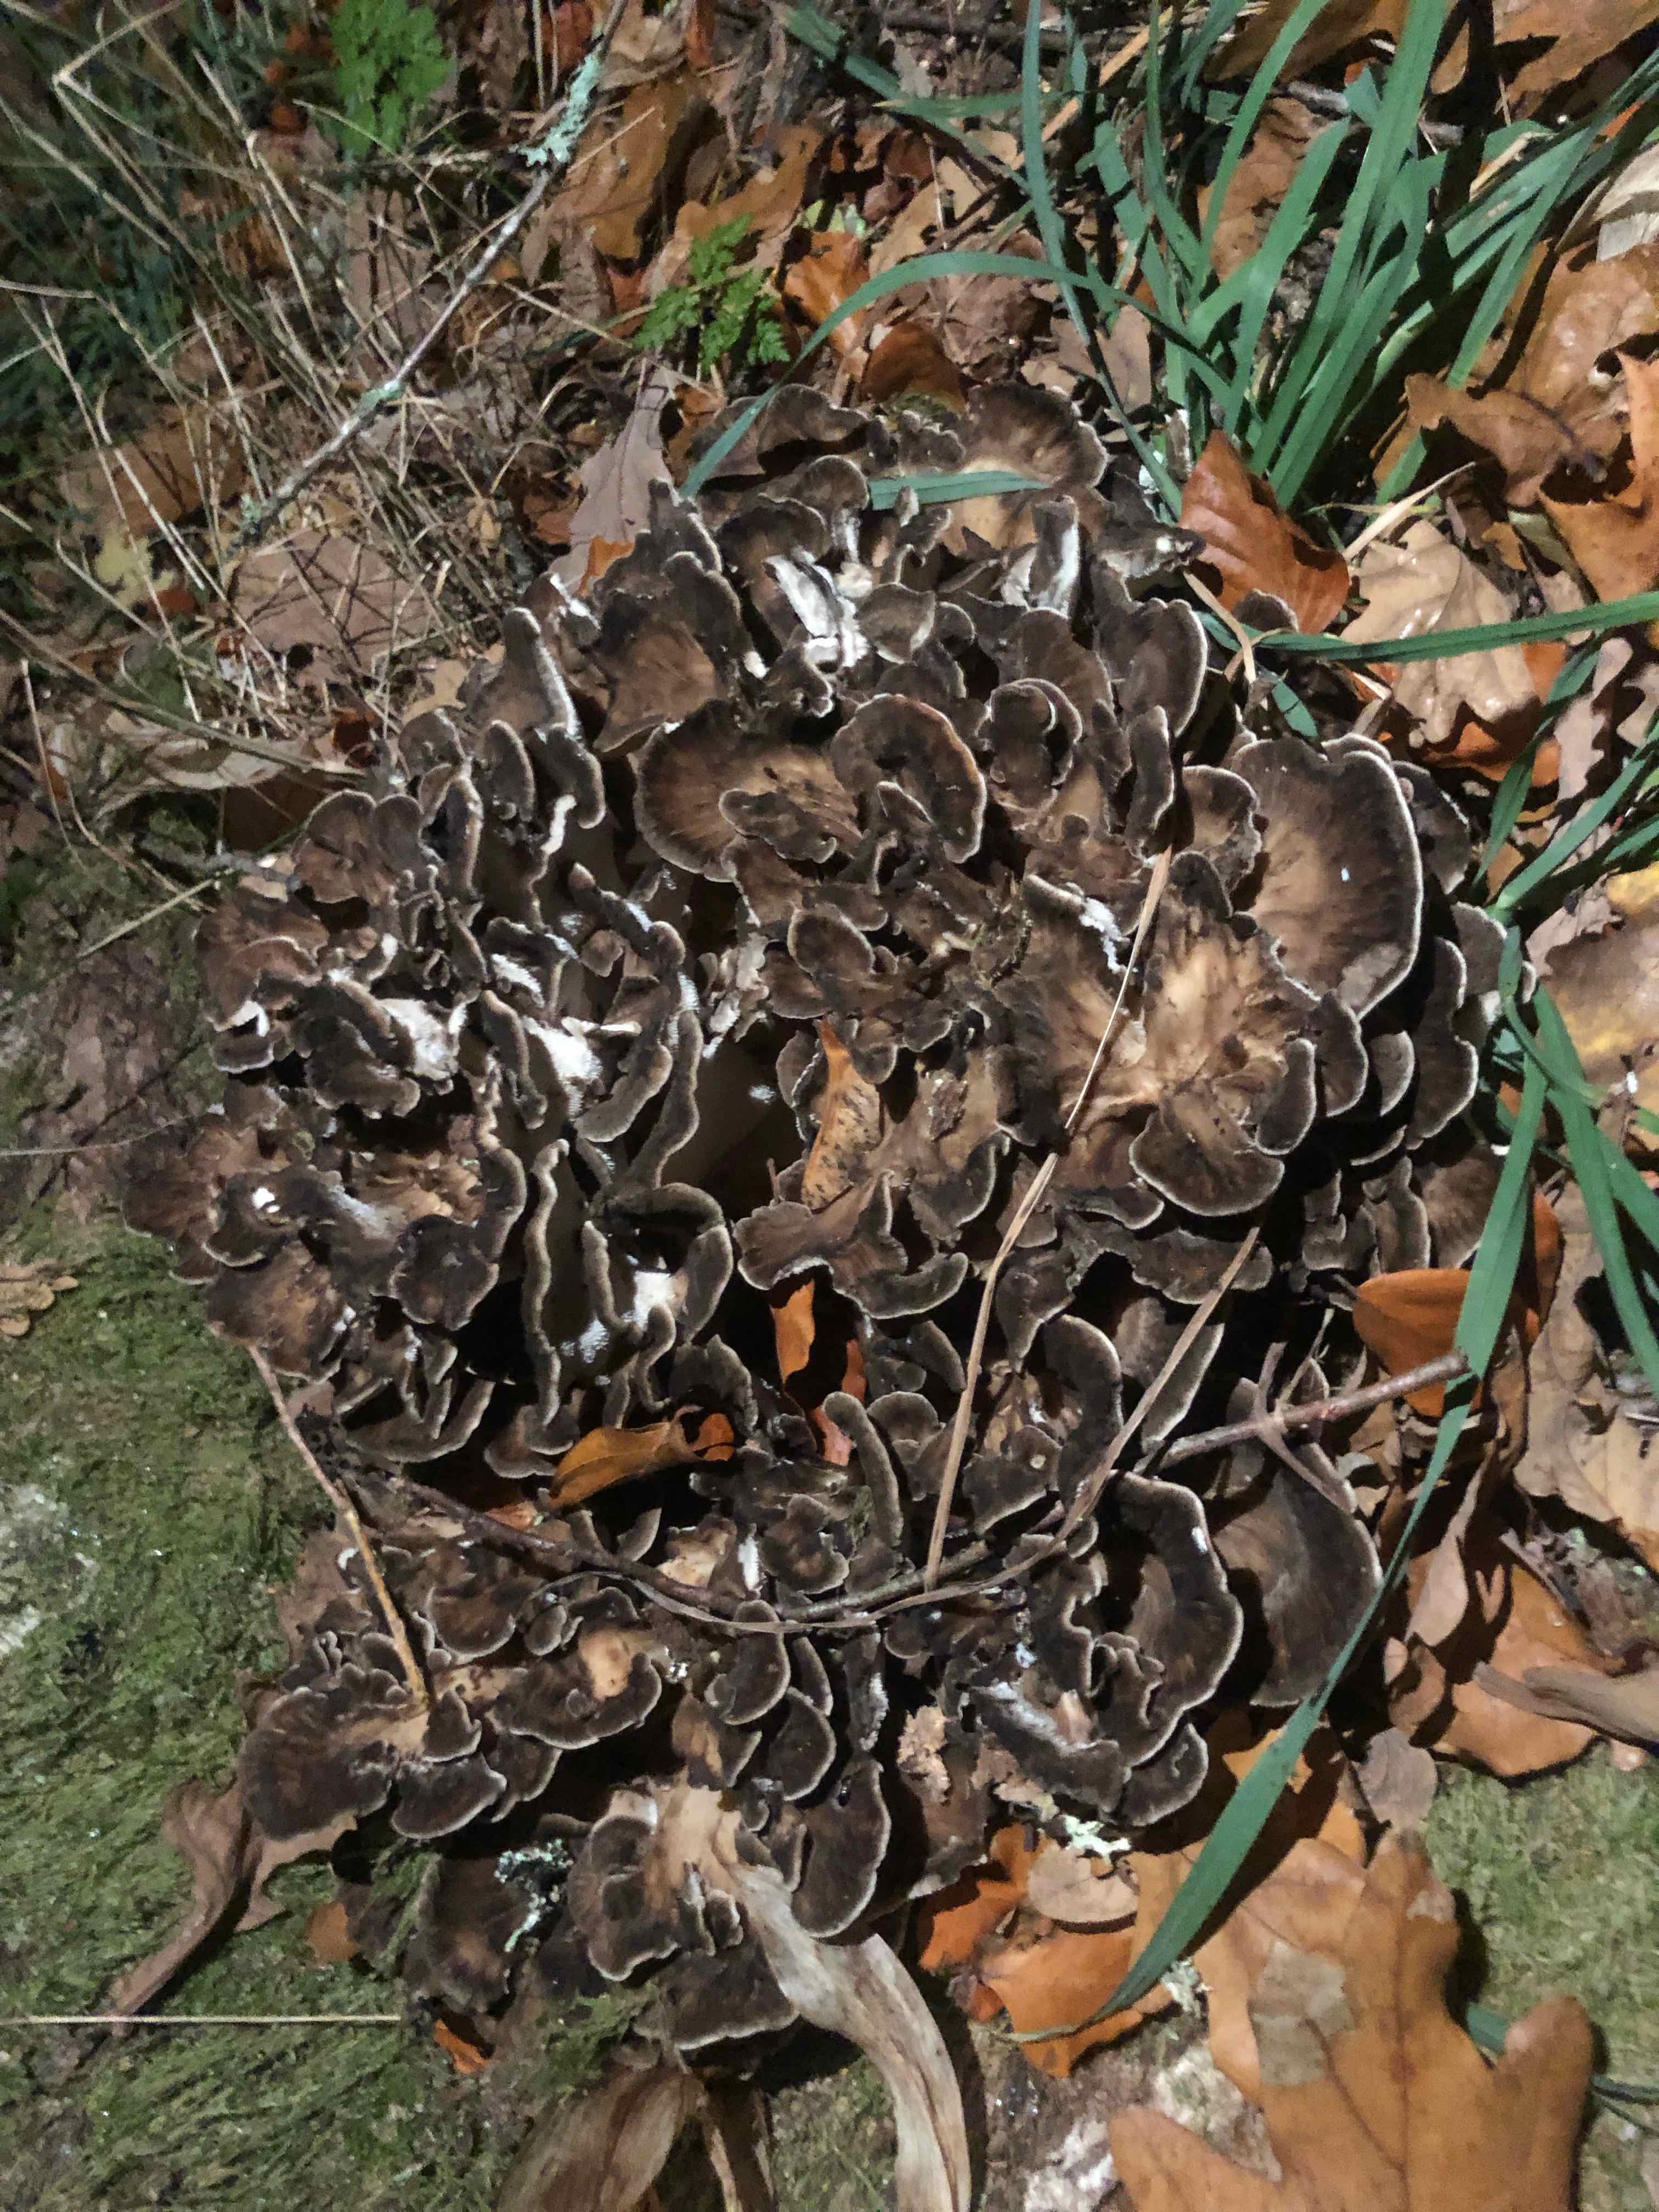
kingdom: Fungi
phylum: Basidiomycota
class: Agaricomycetes
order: Polyporales
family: Grifolaceae
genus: Grifola
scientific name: Grifola frondosa
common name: tueporesvamp
